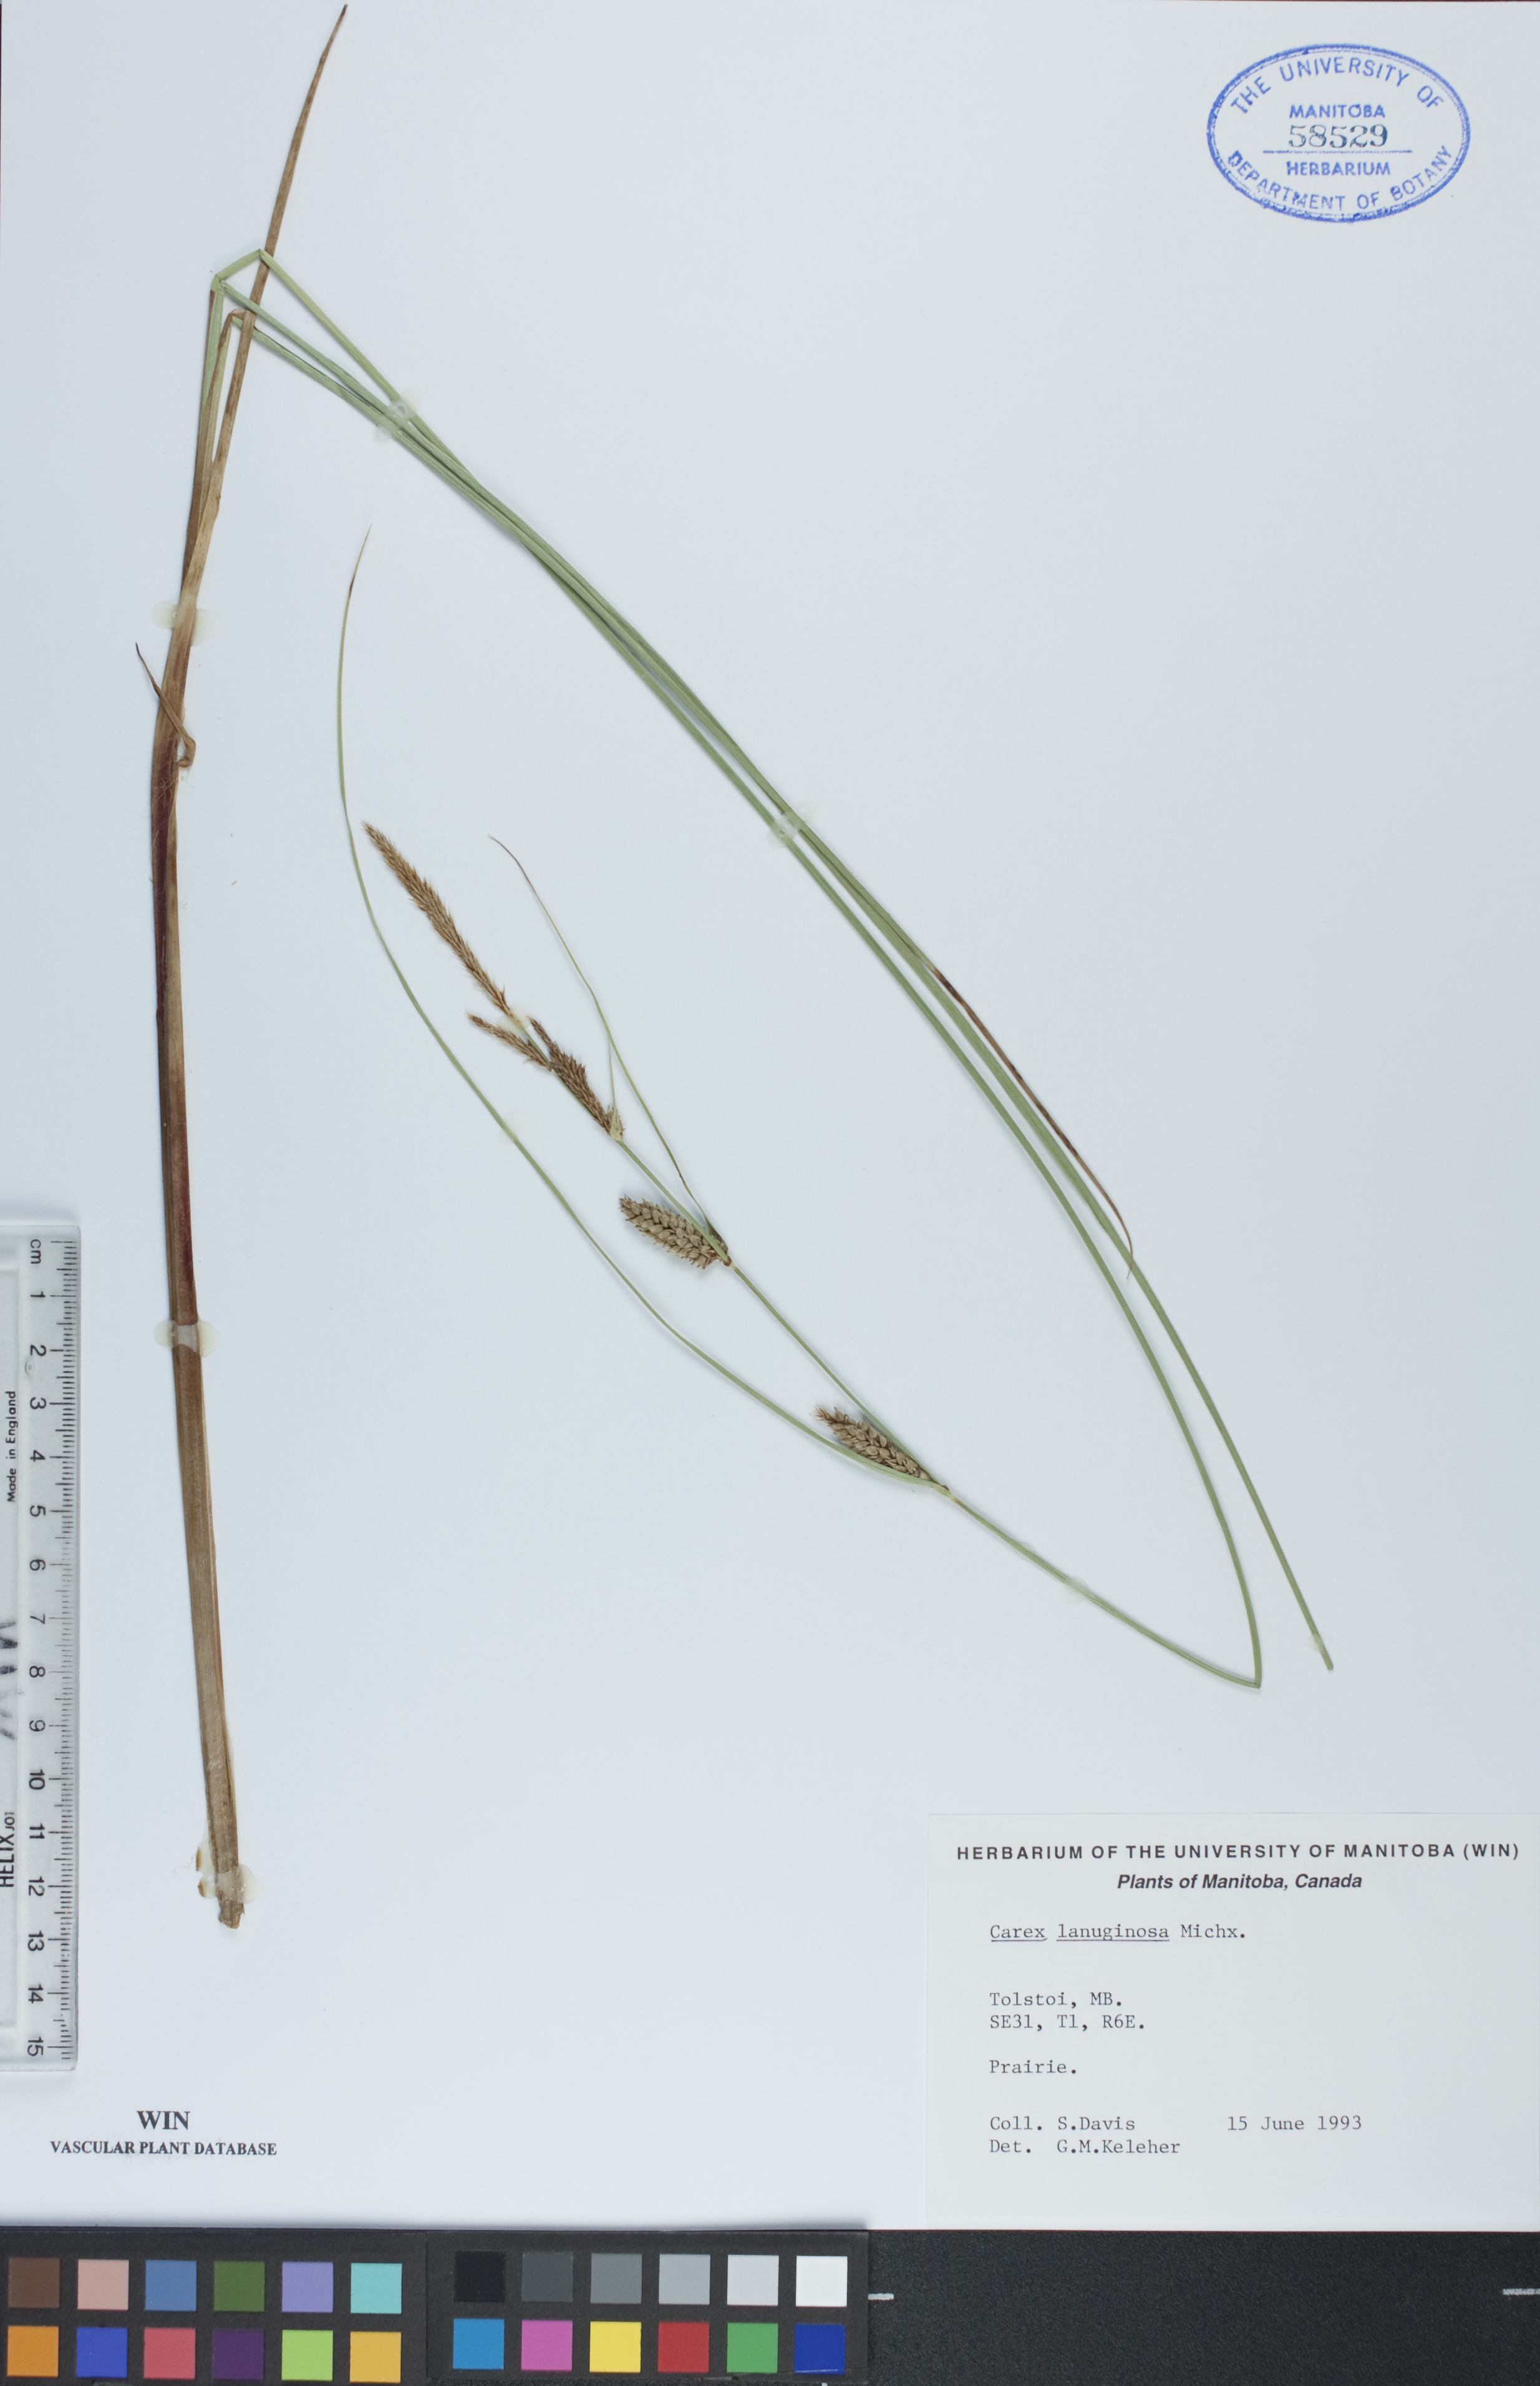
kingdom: Plantae
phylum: Tracheophyta
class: Liliopsida
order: Poales
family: Cyperaceae
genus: Carex
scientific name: Carex lasiocarpa
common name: Slender sedge
